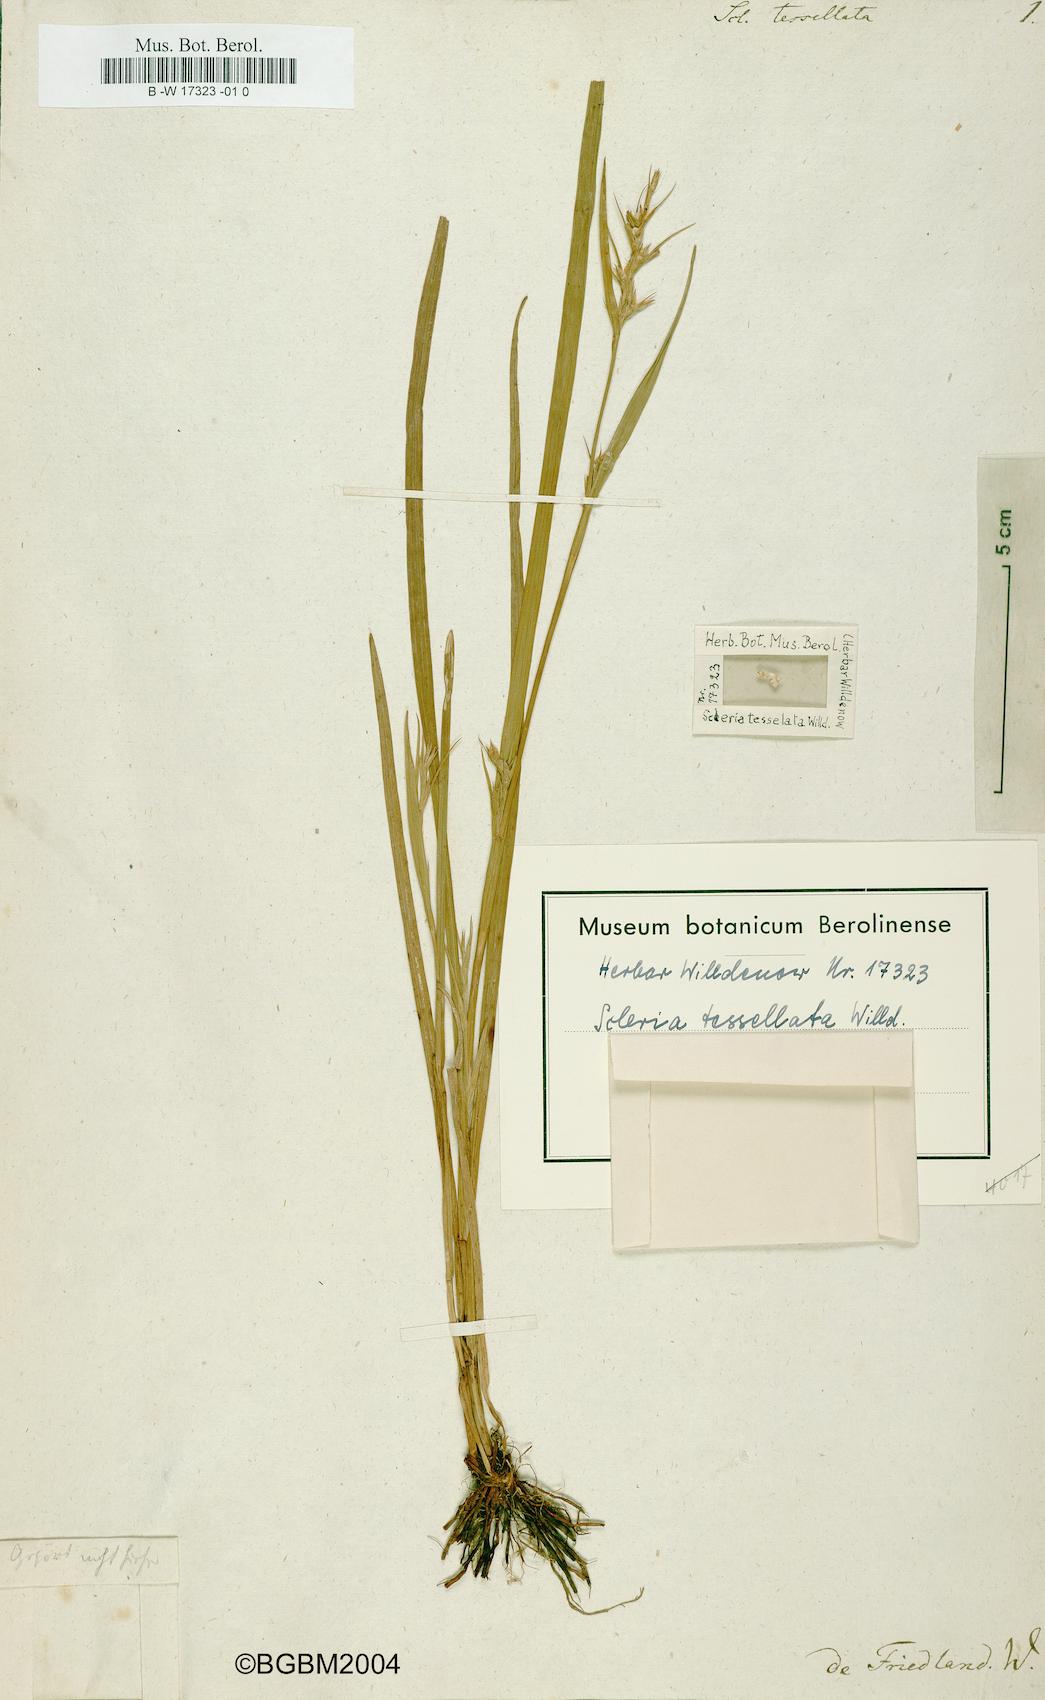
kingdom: Plantae
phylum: Tracheophyta
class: Liliopsida
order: Poales
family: Cyperaceae
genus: Scleria
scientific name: Scleria tessellata
